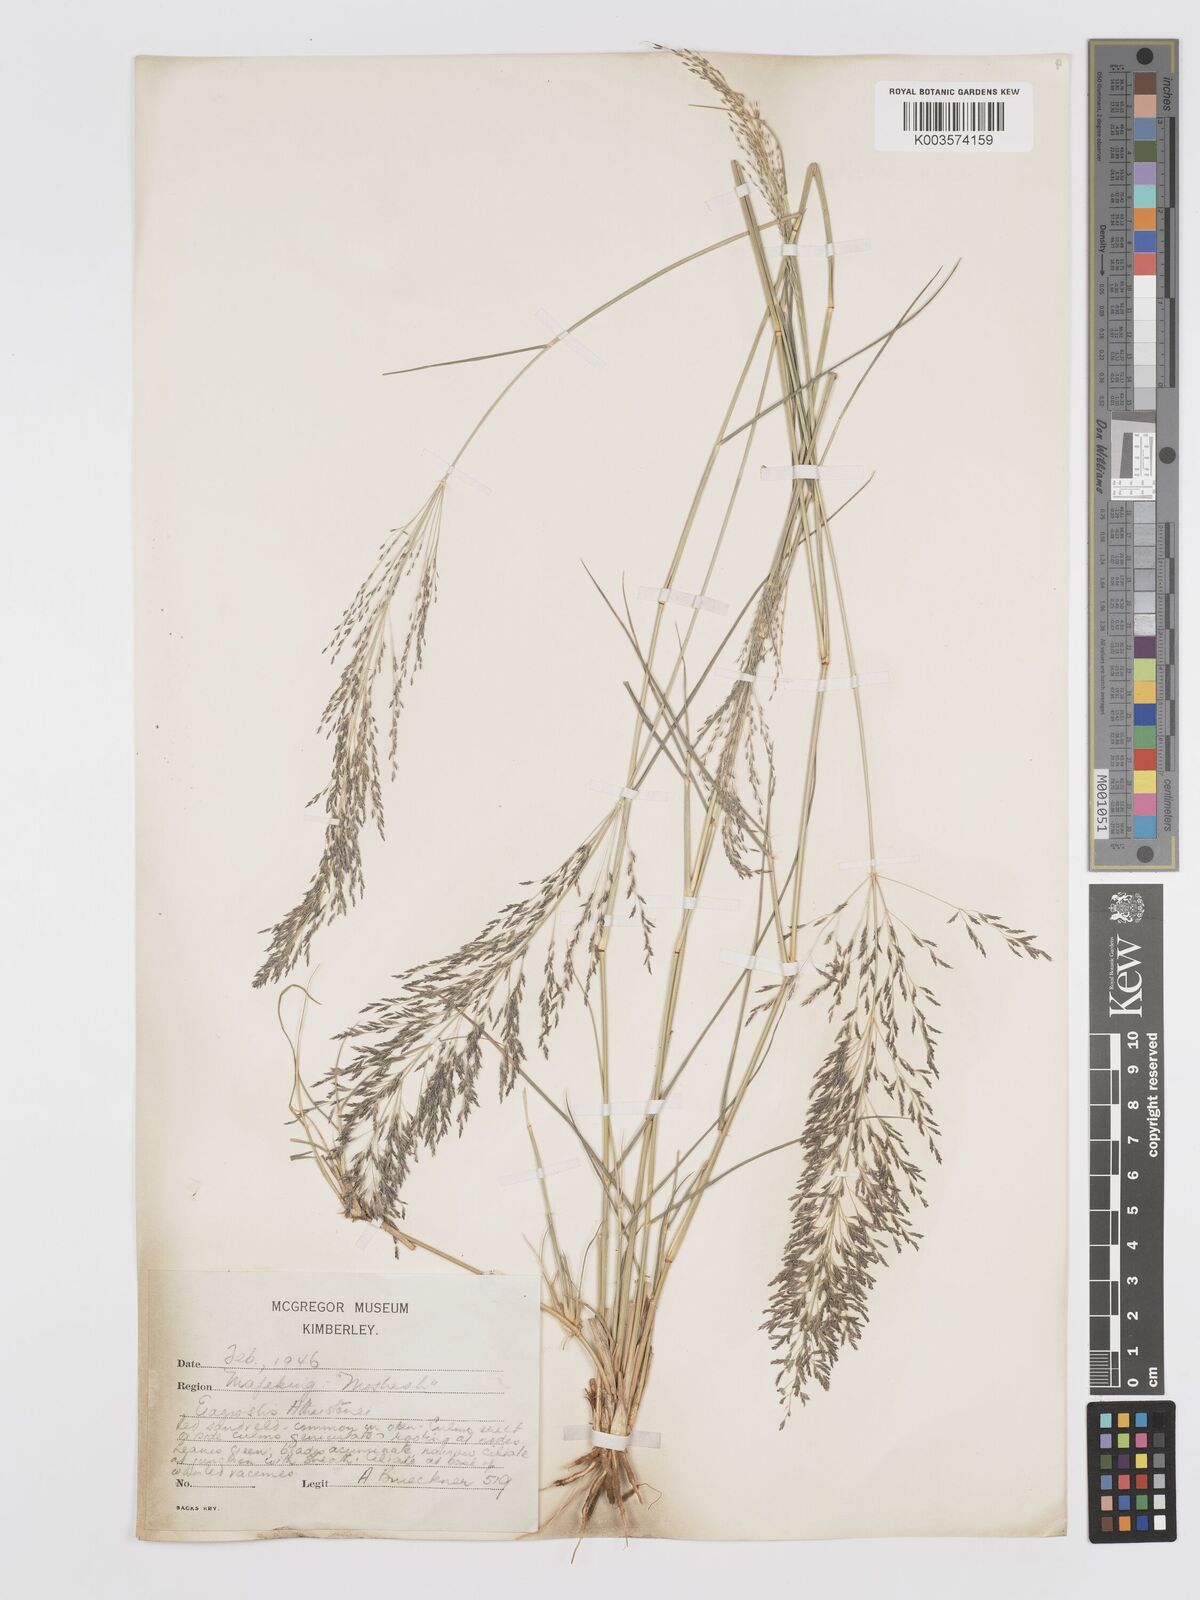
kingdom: Plantae
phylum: Tracheophyta
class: Liliopsida
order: Poales
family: Poaceae
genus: Eragrostis
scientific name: Eragrostis cylindriflora
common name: Cylinderflower lovegrass
